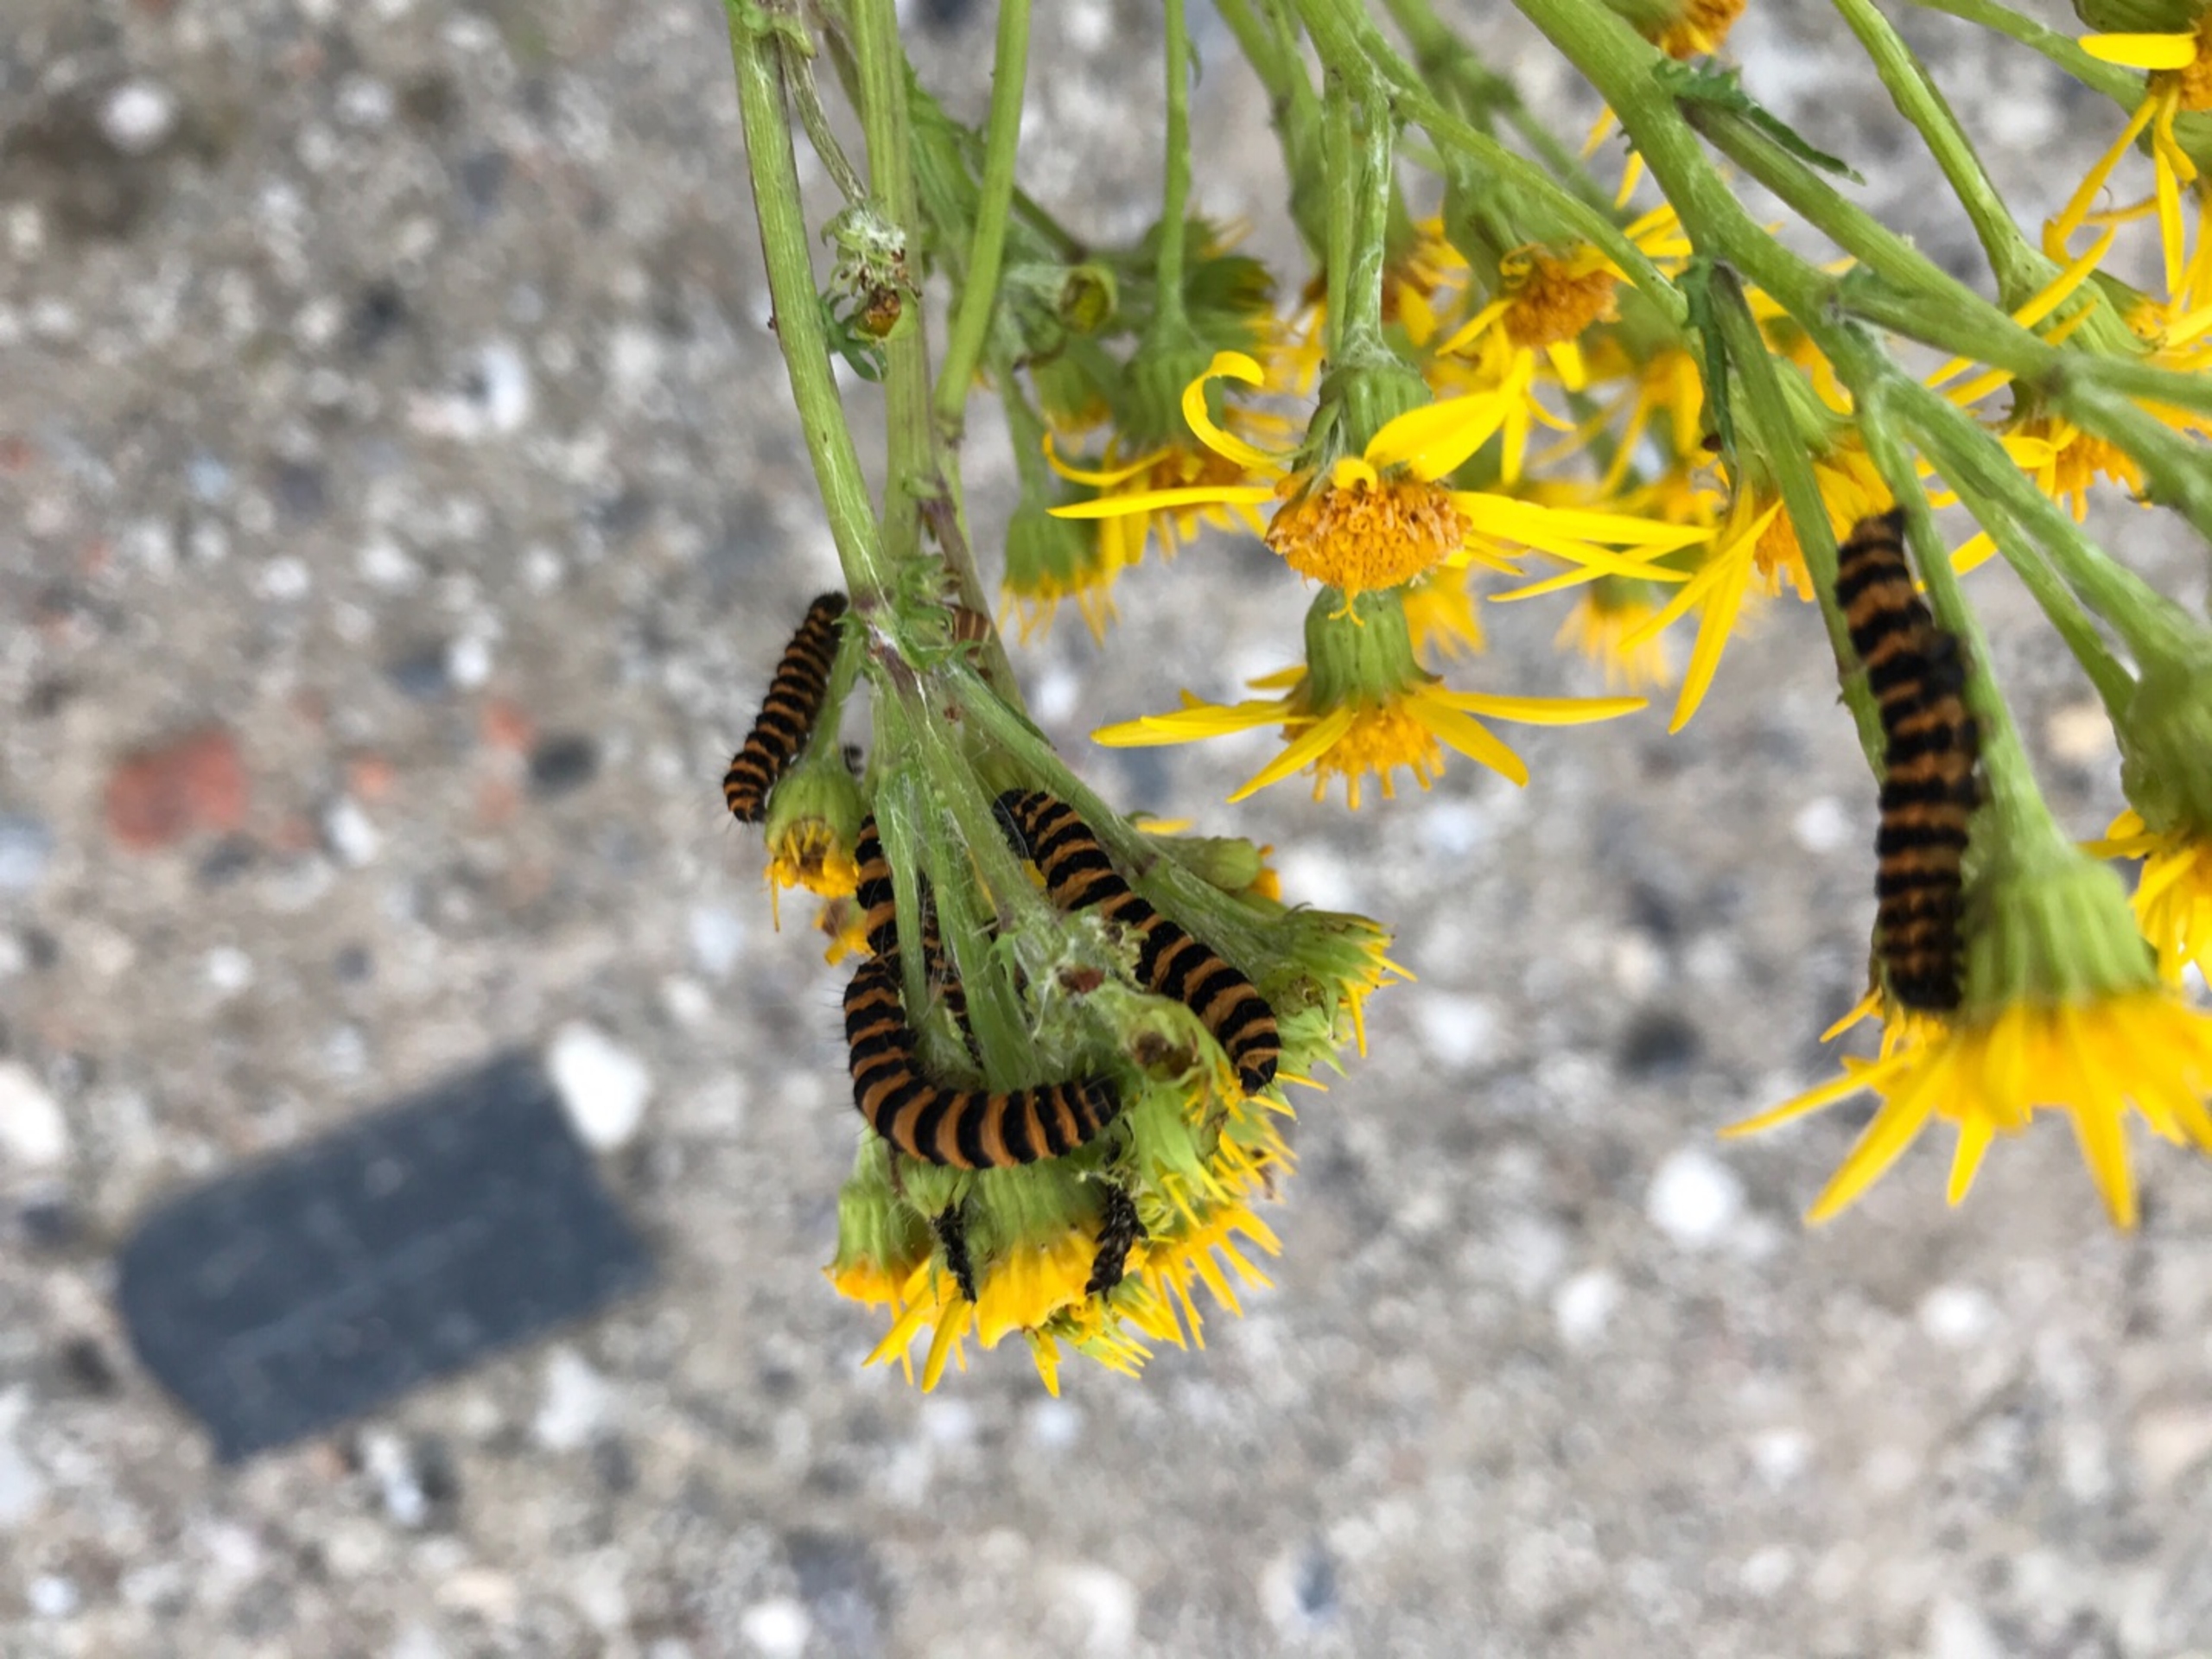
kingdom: Animalia
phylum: Arthropoda
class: Insecta
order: Lepidoptera
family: Erebidae
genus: Tyria
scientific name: Tyria jacobaeae
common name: Blodplet
